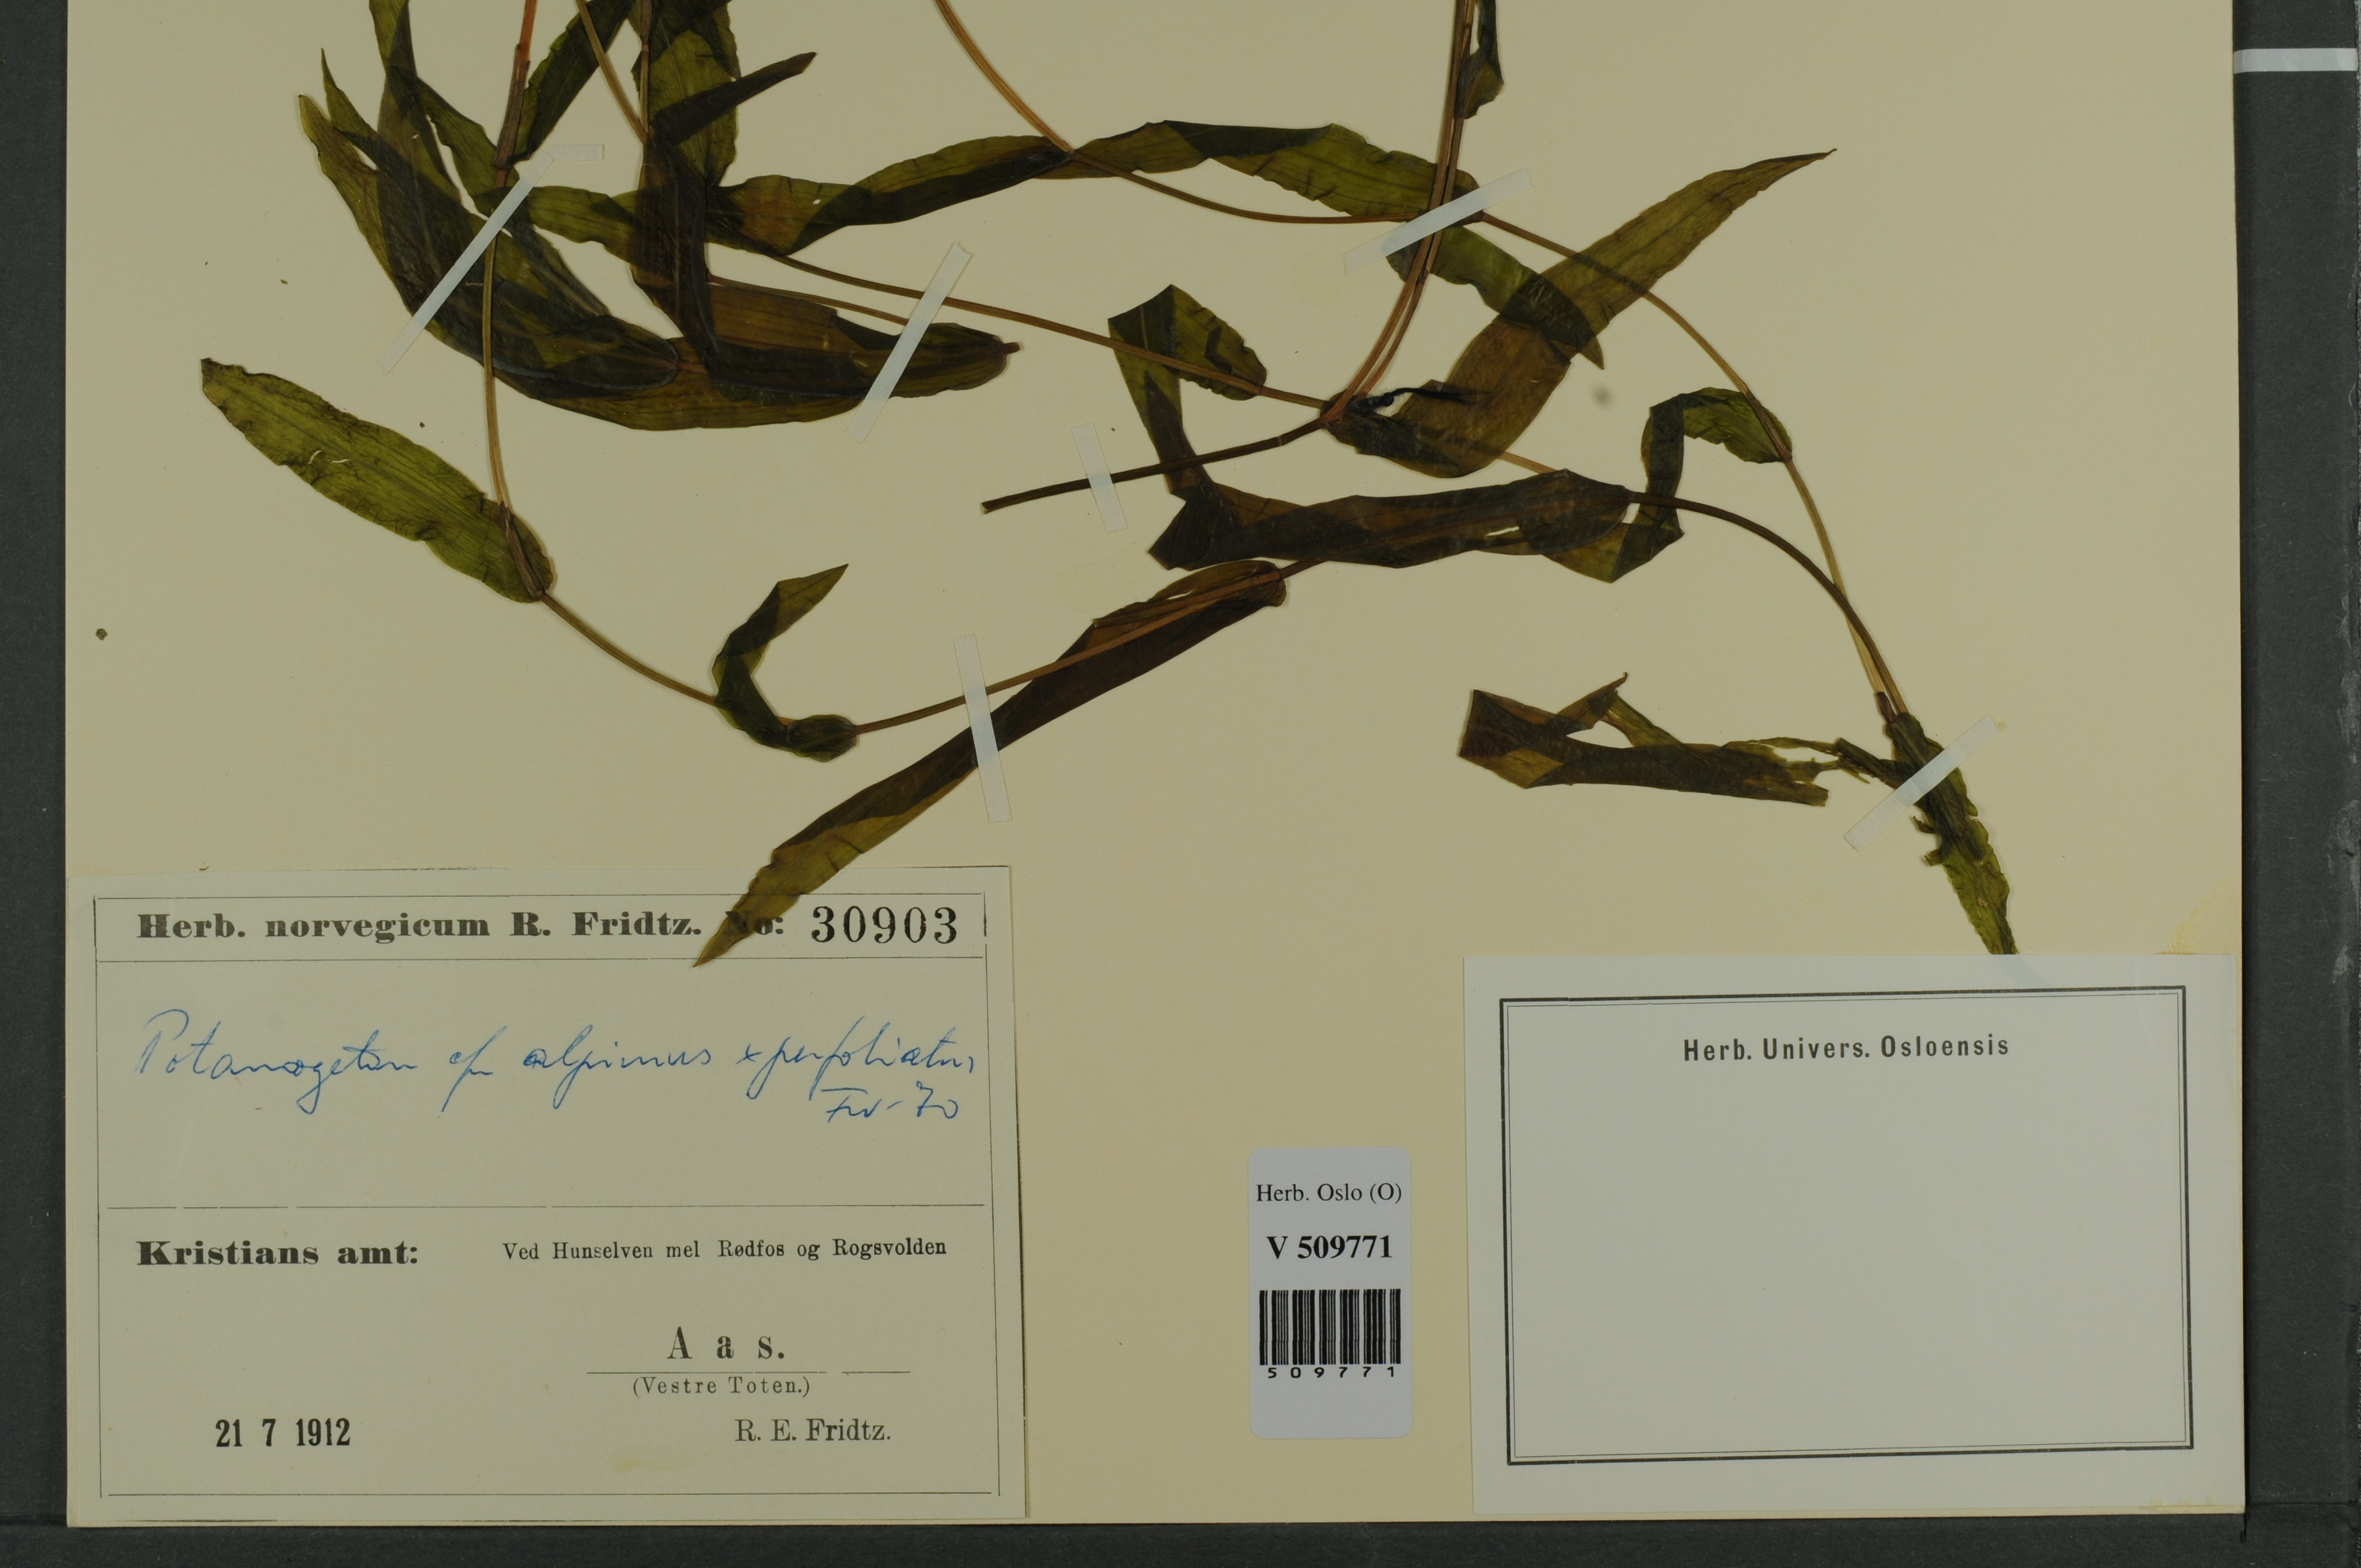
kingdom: Plantae
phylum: Tracheophyta
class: Liliopsida
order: Alismatales
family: Potamogetonaceae
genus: Potamogeton
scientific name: Potamogeton nitens
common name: Pondweed
